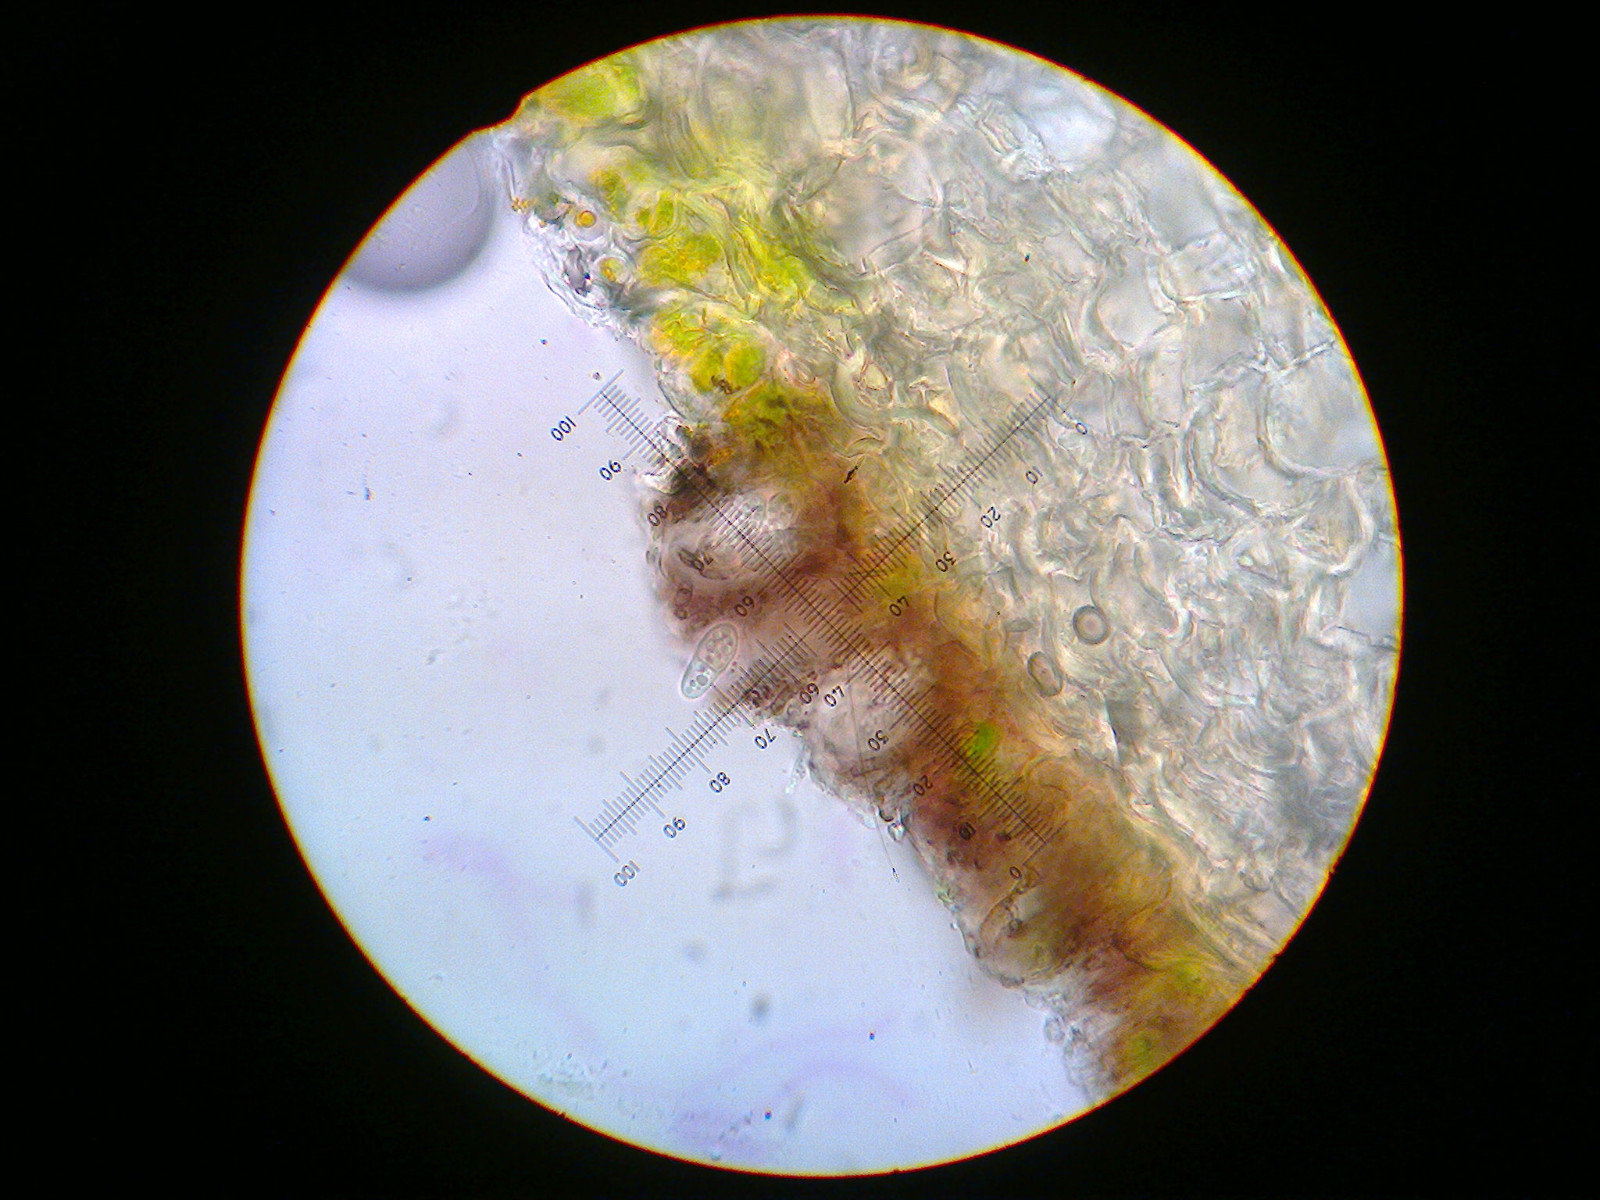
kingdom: Fungi
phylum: Ascomycota
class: Arthoniomycetes
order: Arthoniales
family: Arthoniaceae
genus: Arthonia
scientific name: Arthonia didyma
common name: oliven-pletlav
